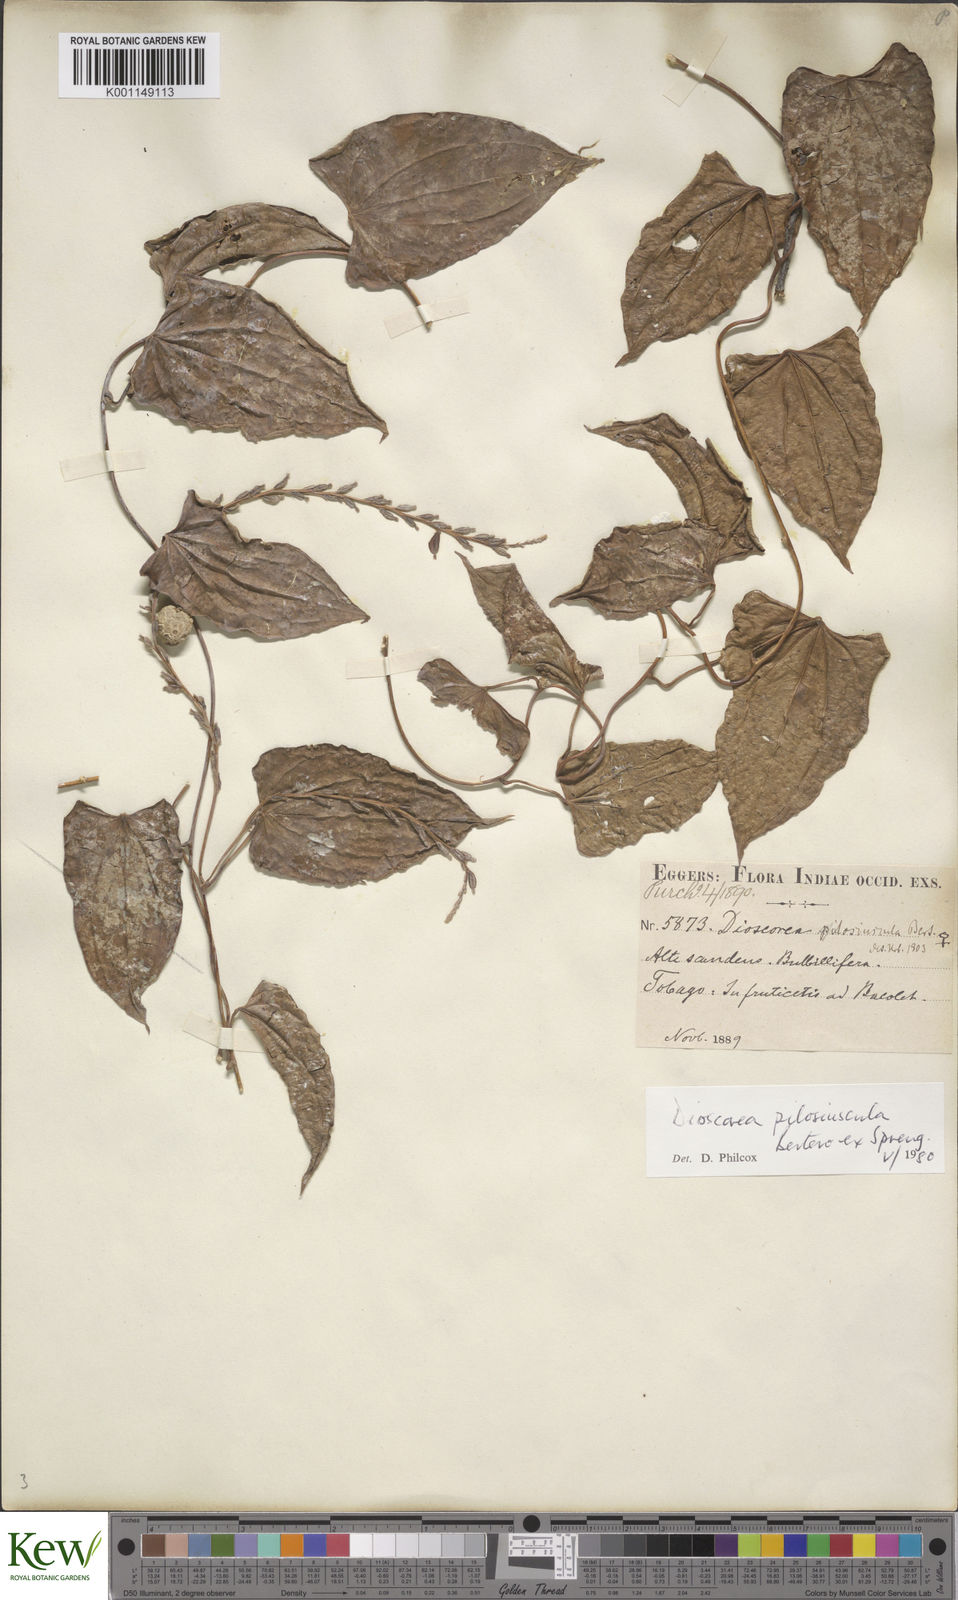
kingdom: Plantae
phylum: Tracheophyta
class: Liliopsida
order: Dioscoreales
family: Dioscoreaceae
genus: Dioscorea
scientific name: Dioscorea pilosiuscula
